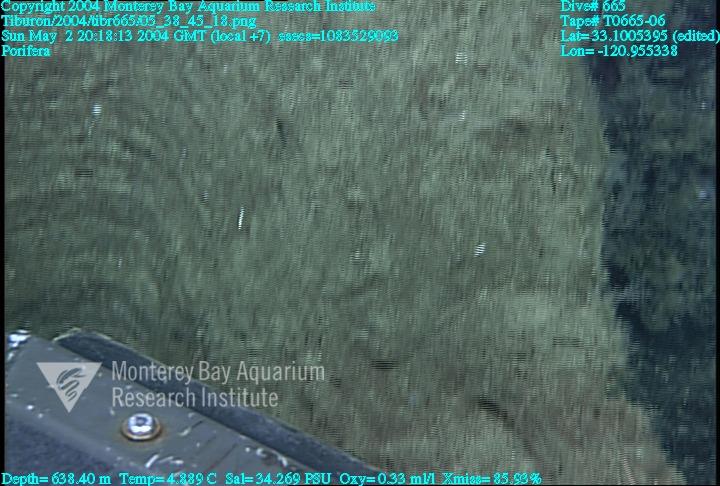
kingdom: Animalia
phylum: Porifera
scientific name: Porifera
